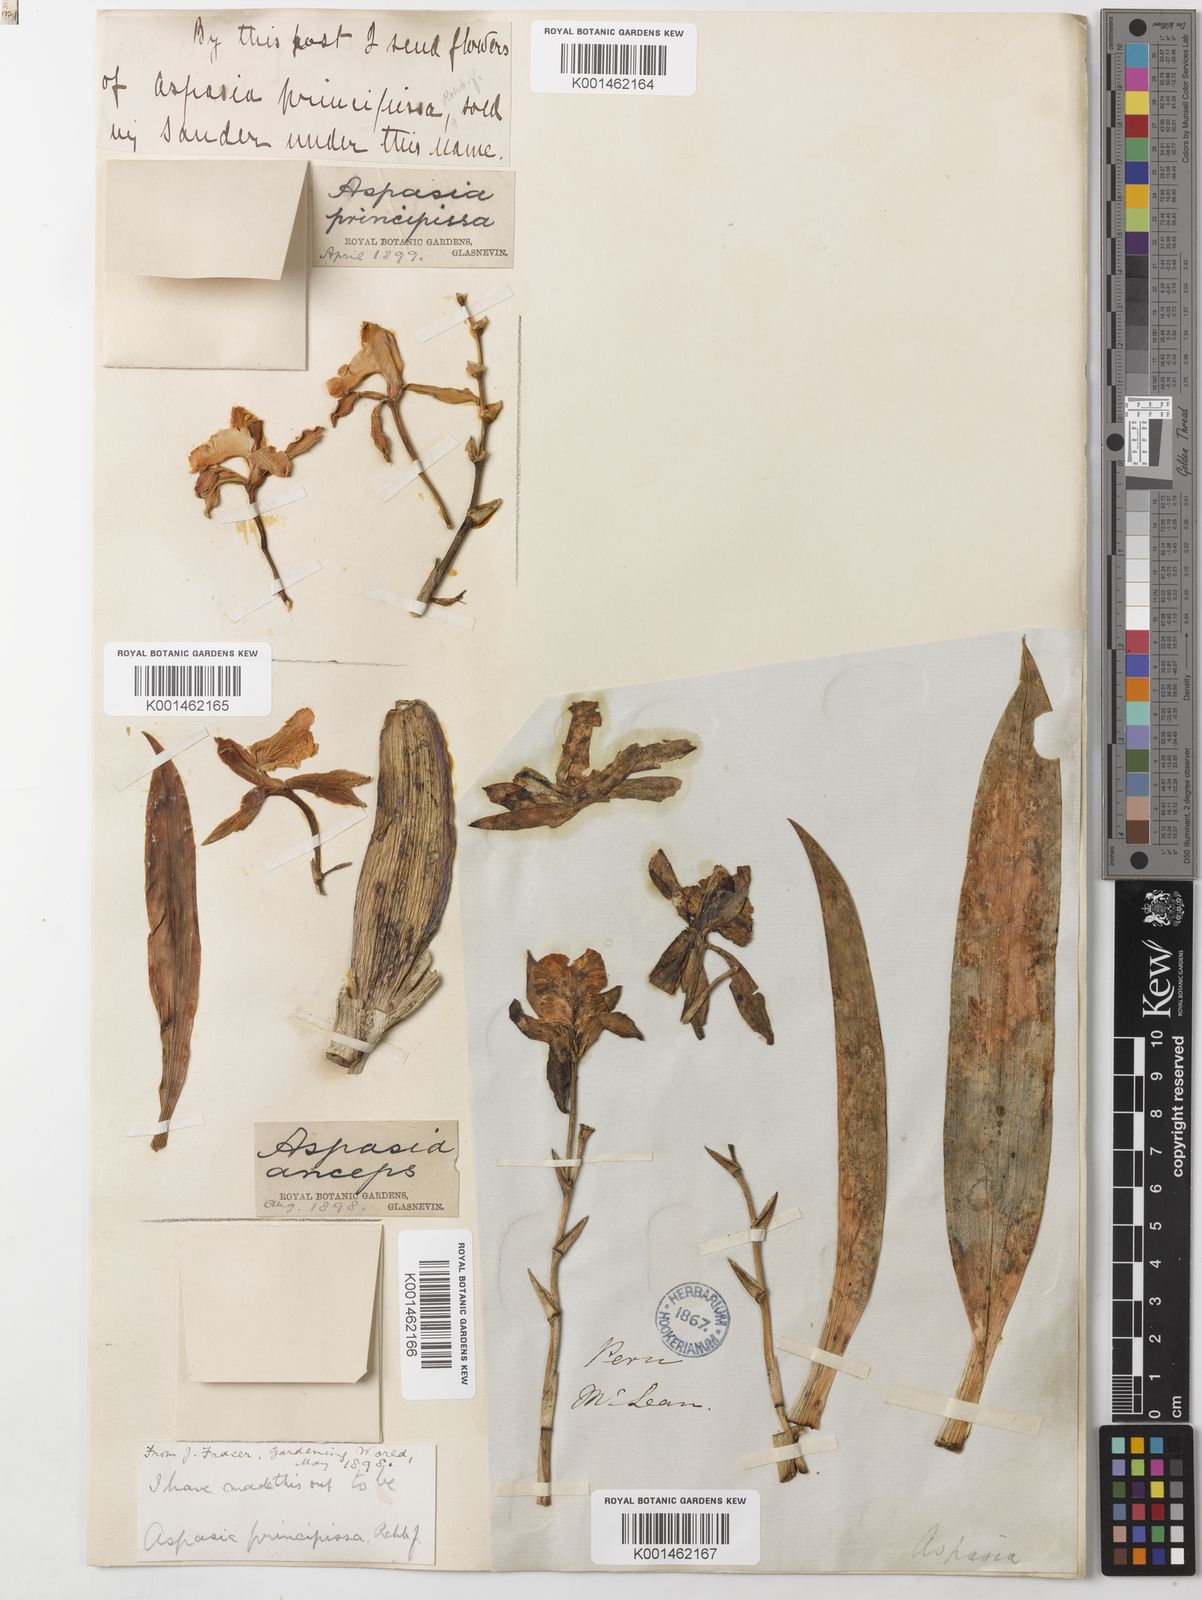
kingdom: Plantae
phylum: Tracheophyta
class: Liliopsida
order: Asparagales
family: Orchidaceae
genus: Aspasia
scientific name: Aspasia epidendroides
